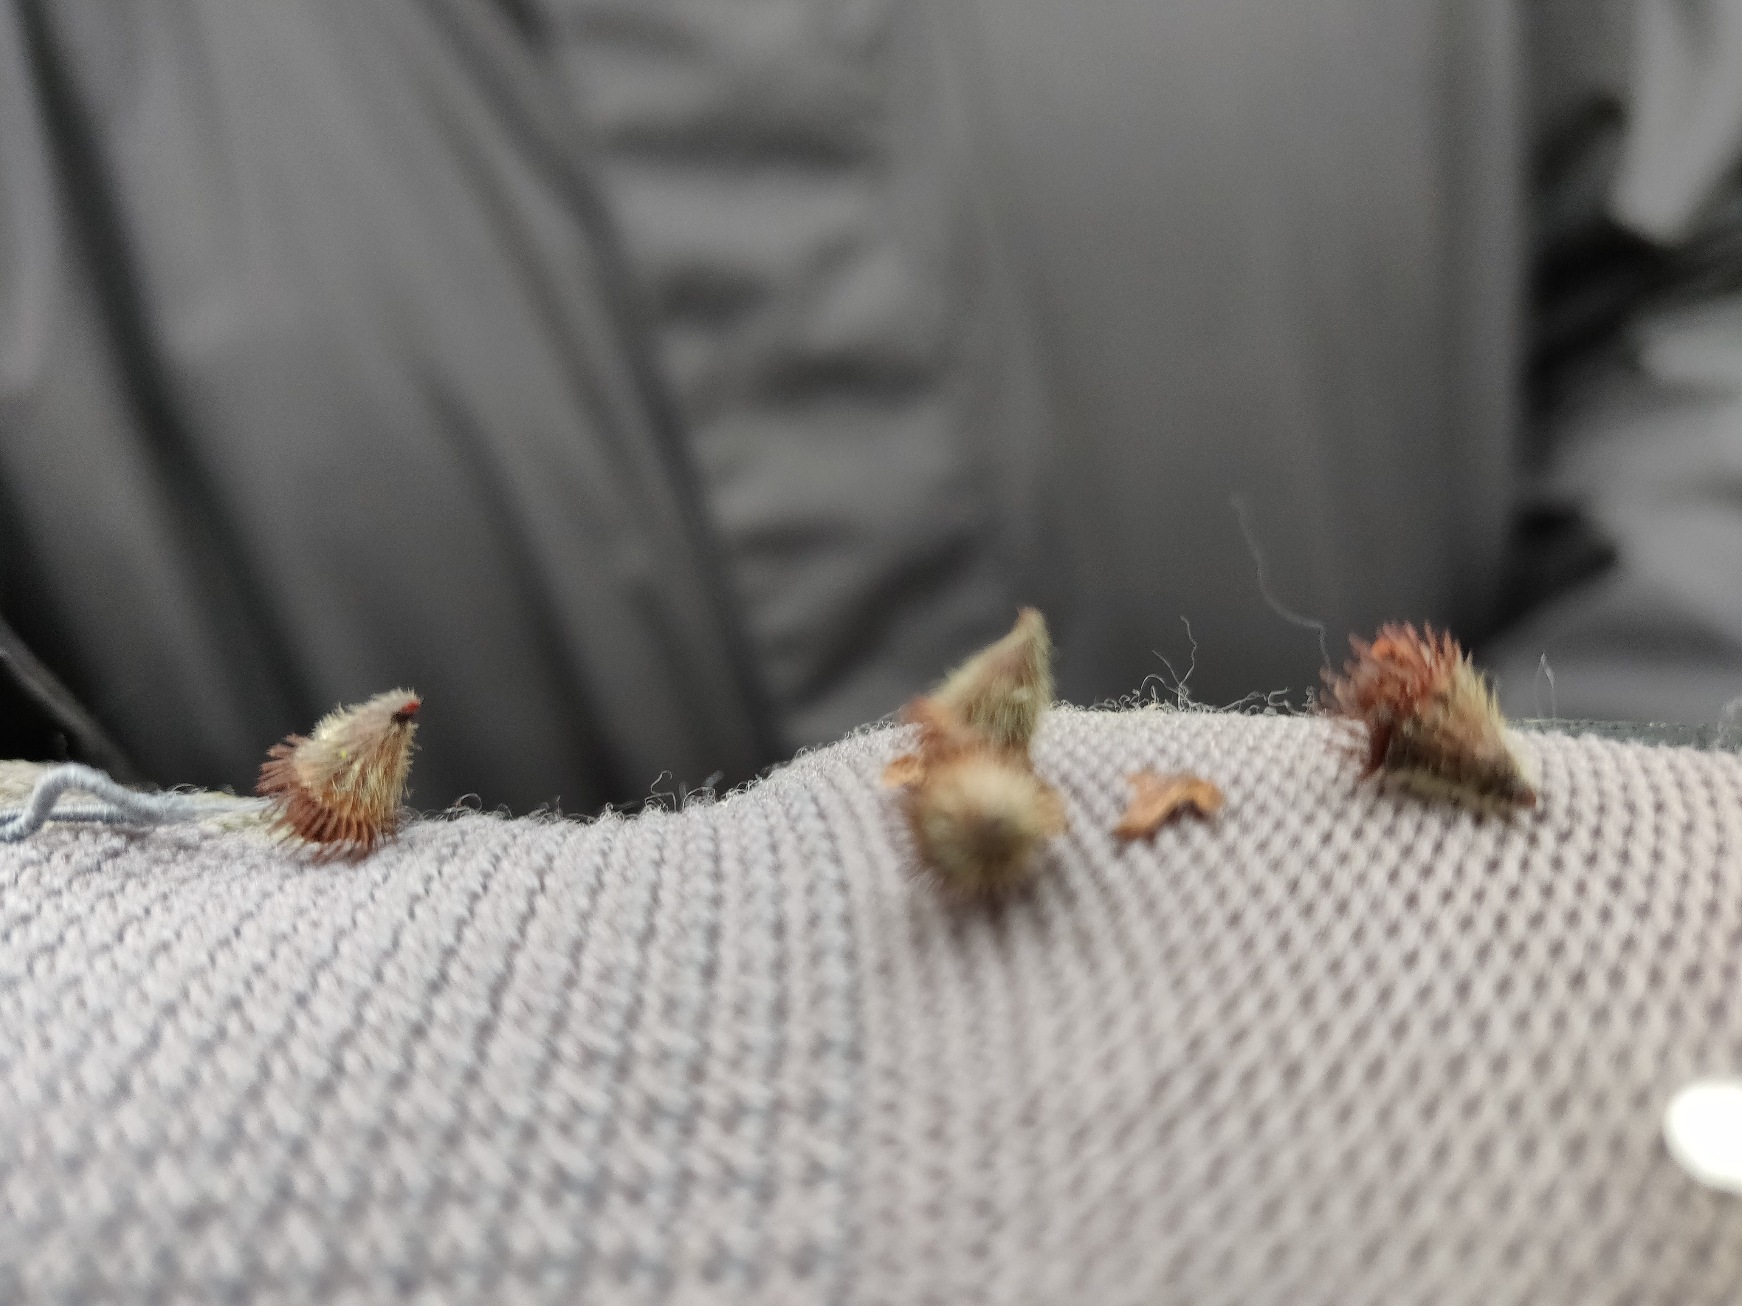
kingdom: Plantae
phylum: Tracheophyta
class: Magnoliopsida
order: Rosales
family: Rosaceae
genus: Agrimonia
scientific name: Agrimonia eupatoria
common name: Almindelig agermåne
